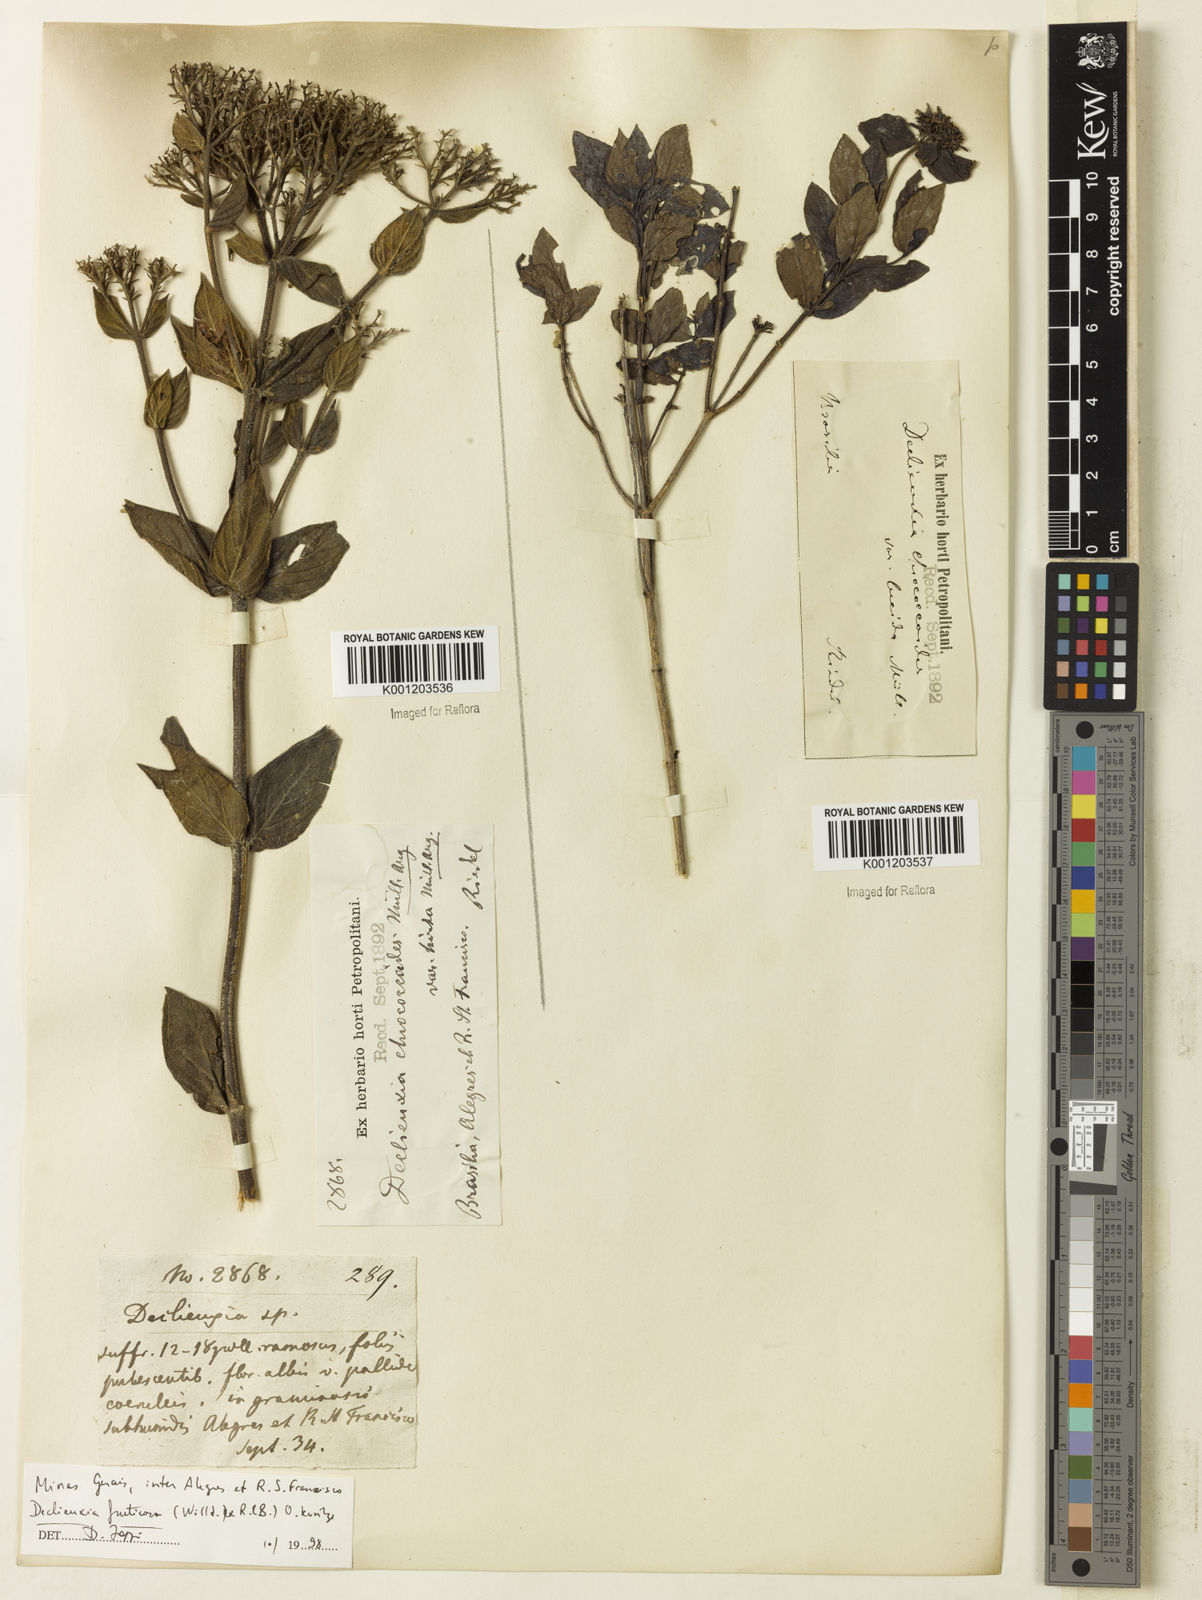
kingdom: Plantae
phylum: Tracheophyta
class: Magnoliopsida
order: Gentianales
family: Rubiaceae
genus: Declieuxia
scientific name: Declieuxia fruticosa
